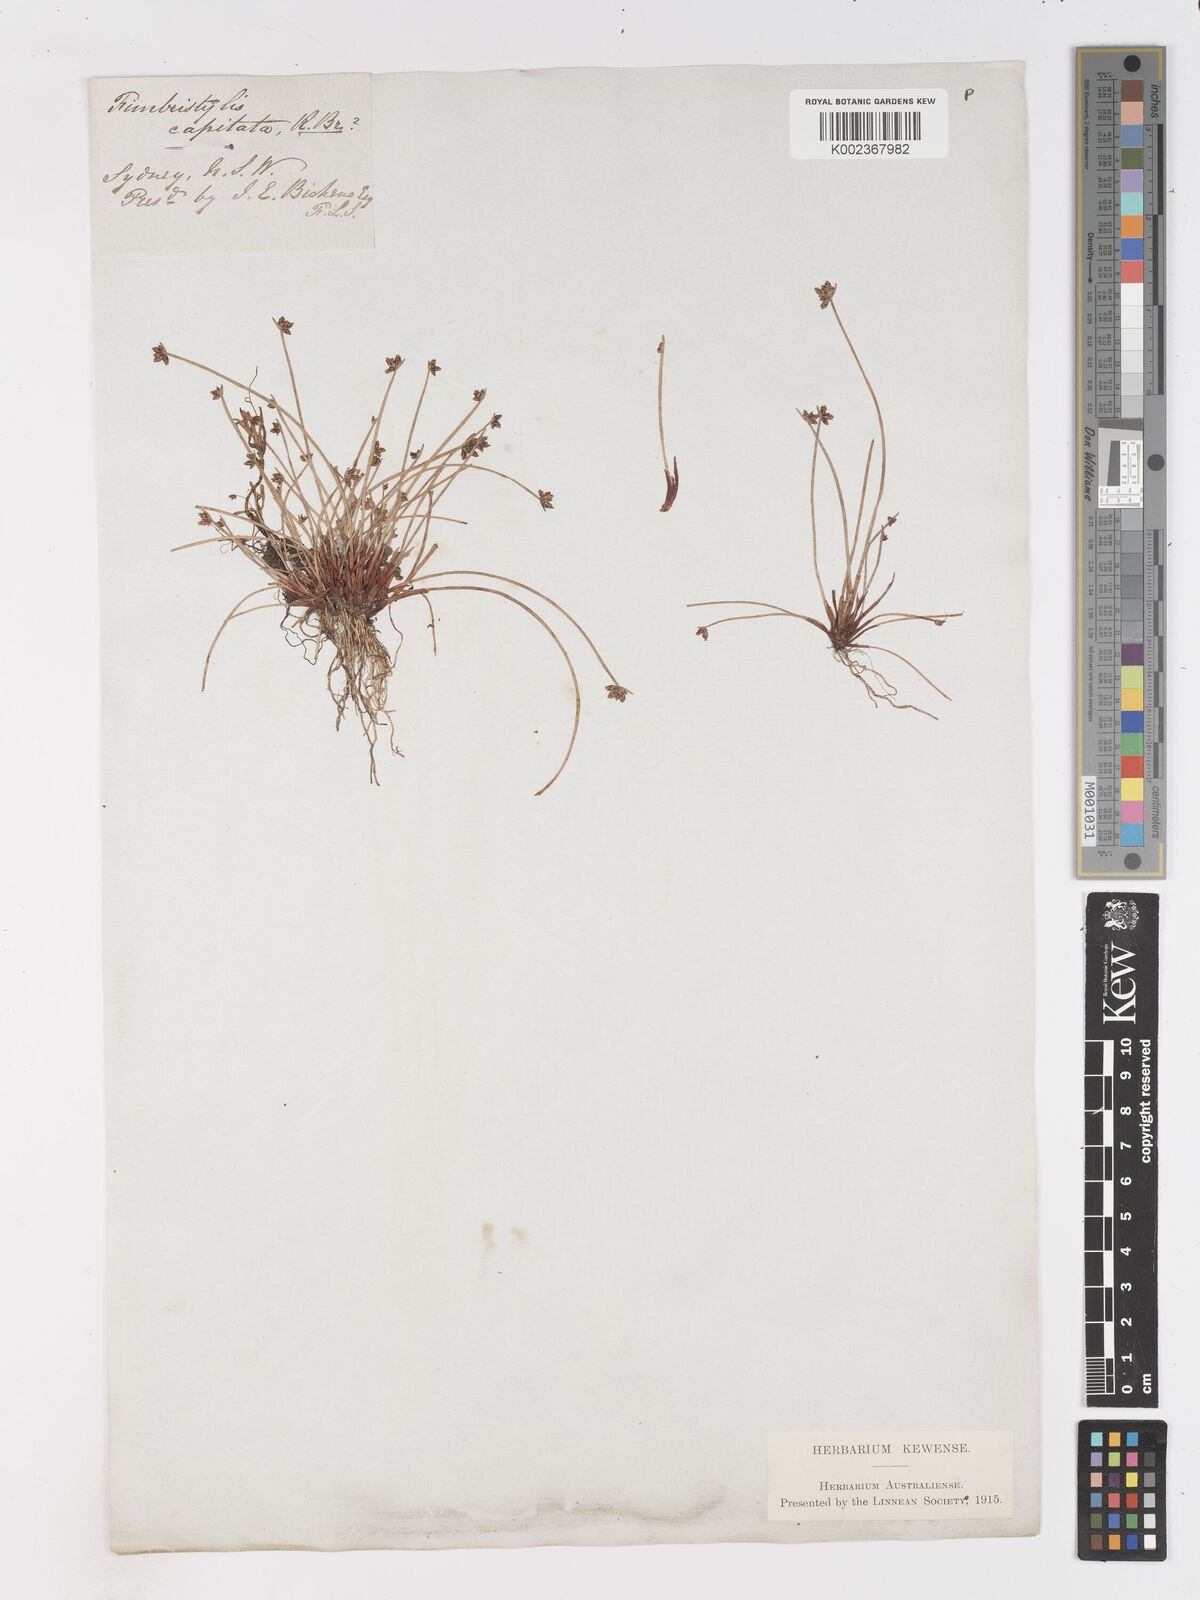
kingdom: Plantae
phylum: Tracheophyta
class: Liliopsida
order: Poales
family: Cyperaceae
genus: Isolepis
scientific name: Isolepis inundata
